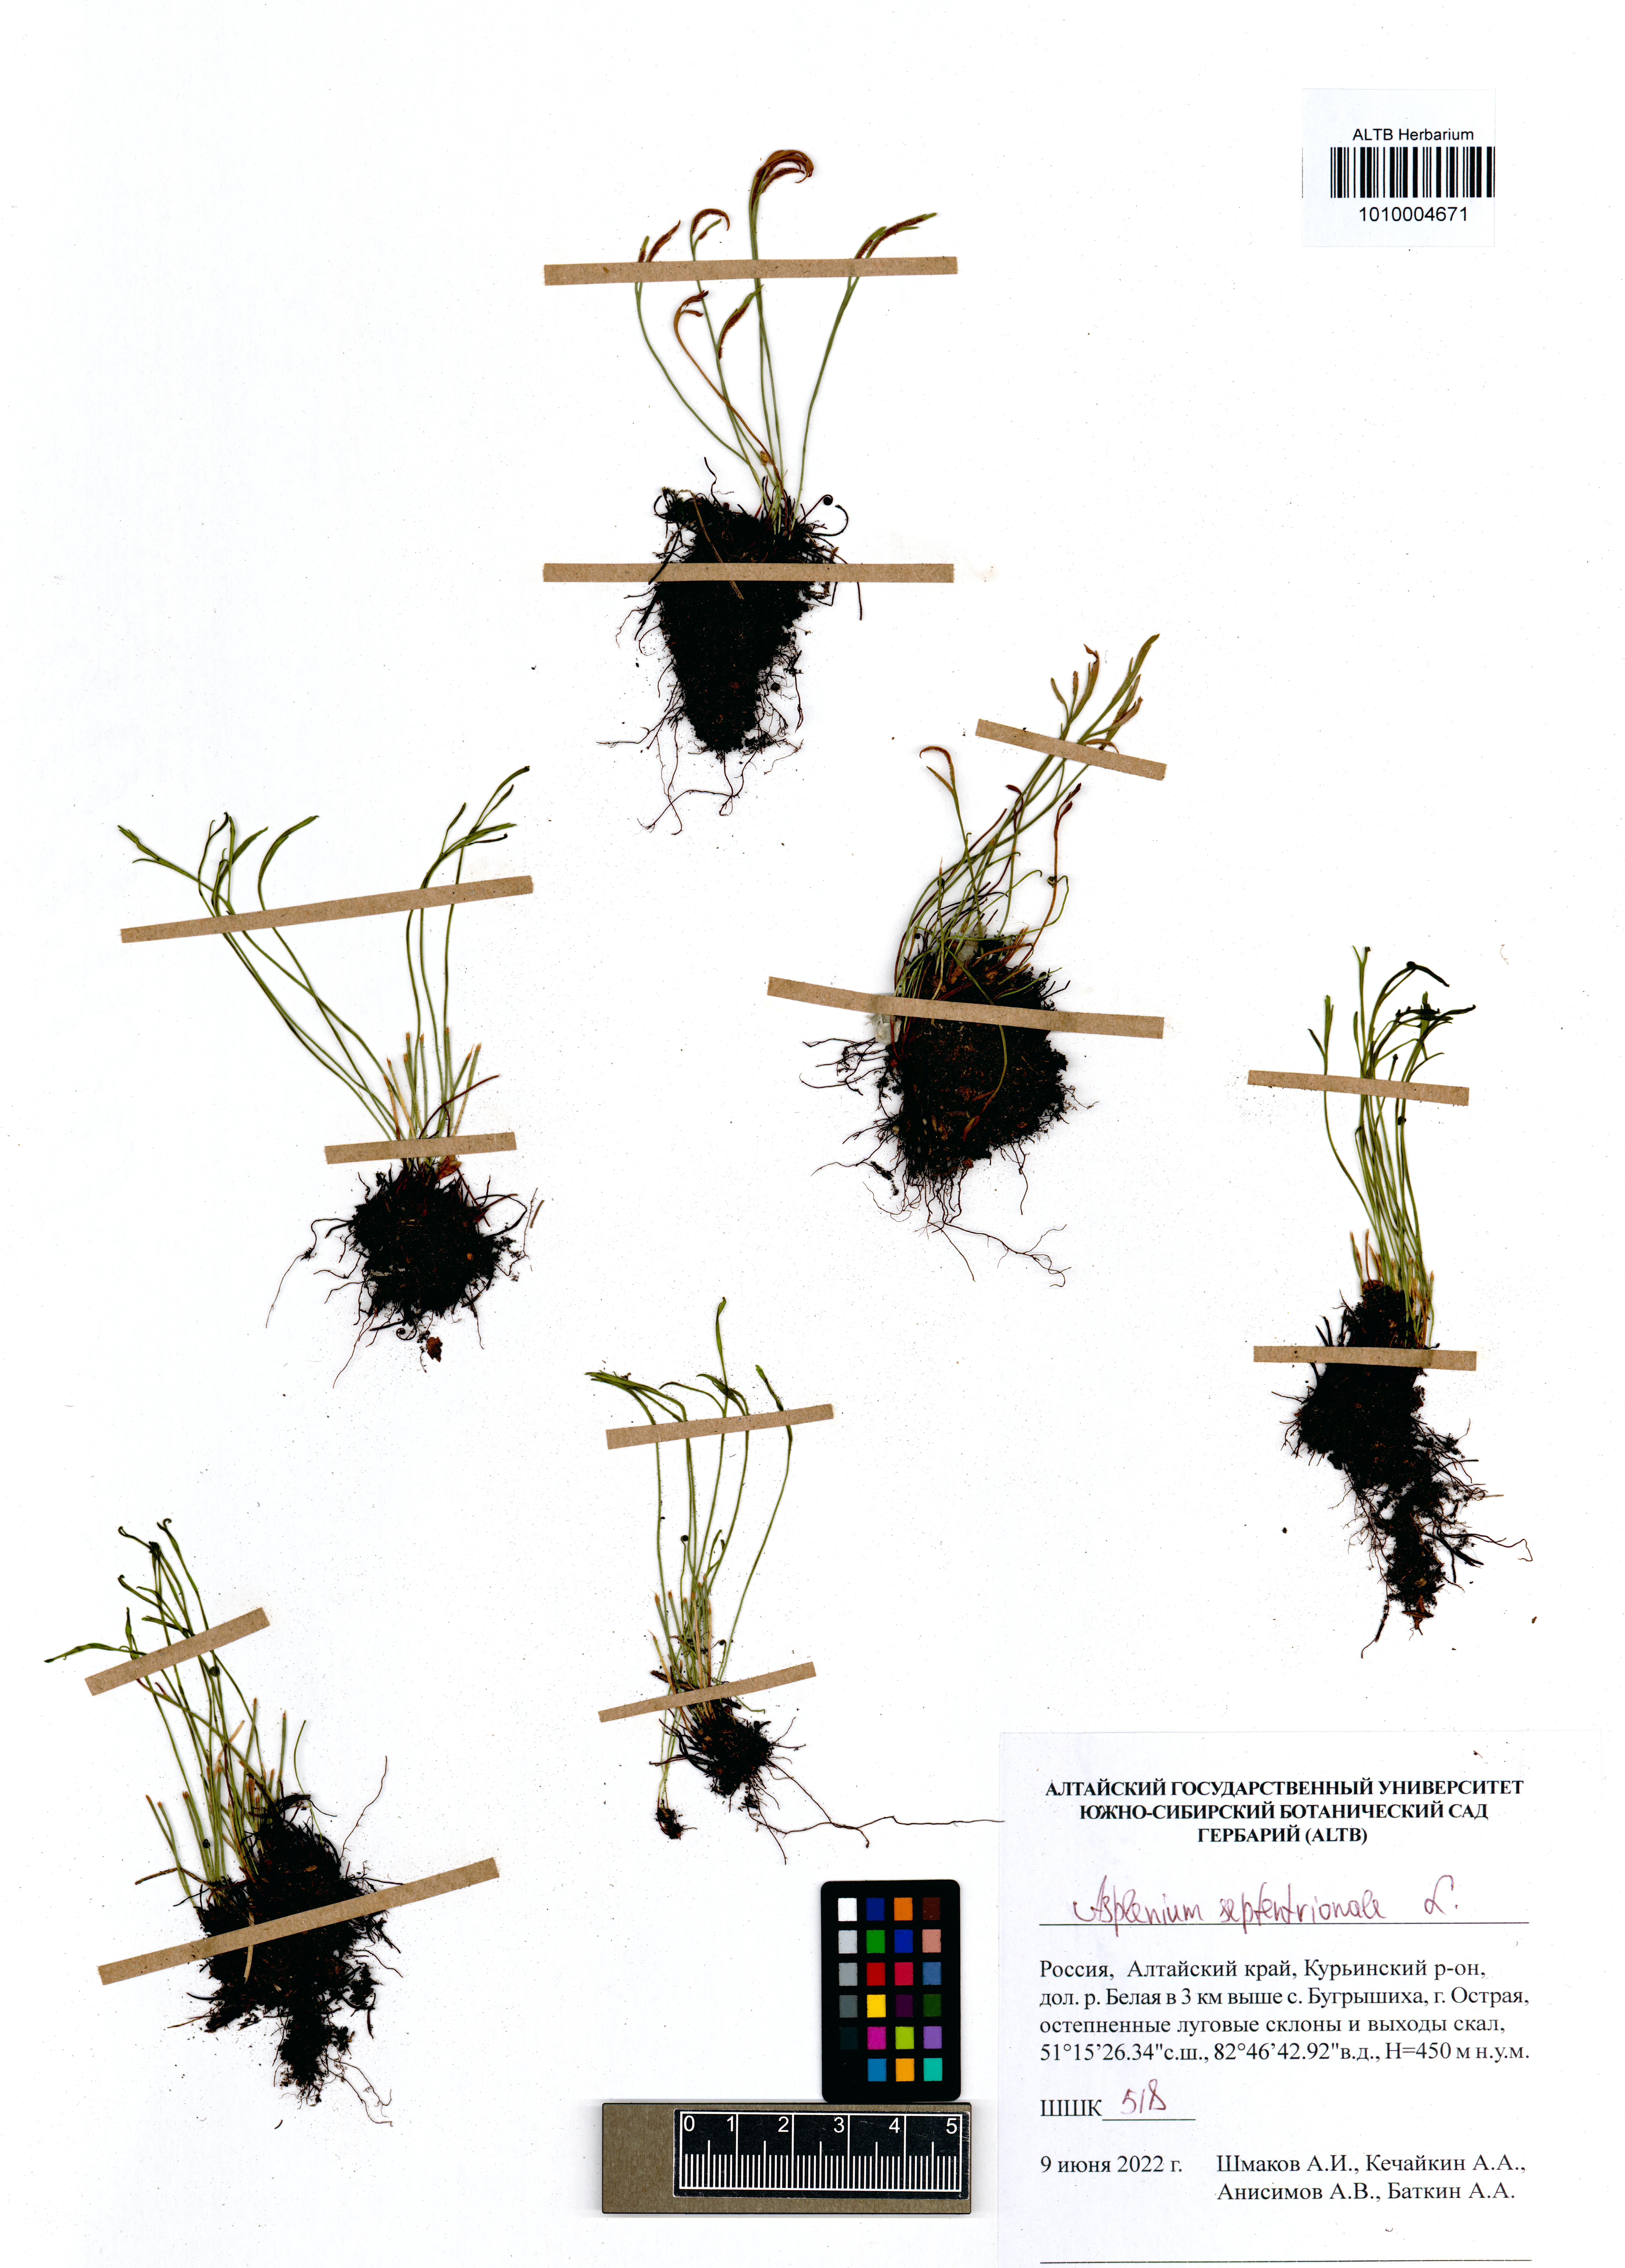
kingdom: Plantae
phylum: Tracheophyta
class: Polypodiopsida
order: Polypodiales
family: Aspleniaceae
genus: Asplenium
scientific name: Asplenium septentrionale
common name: Forked spleenwort
